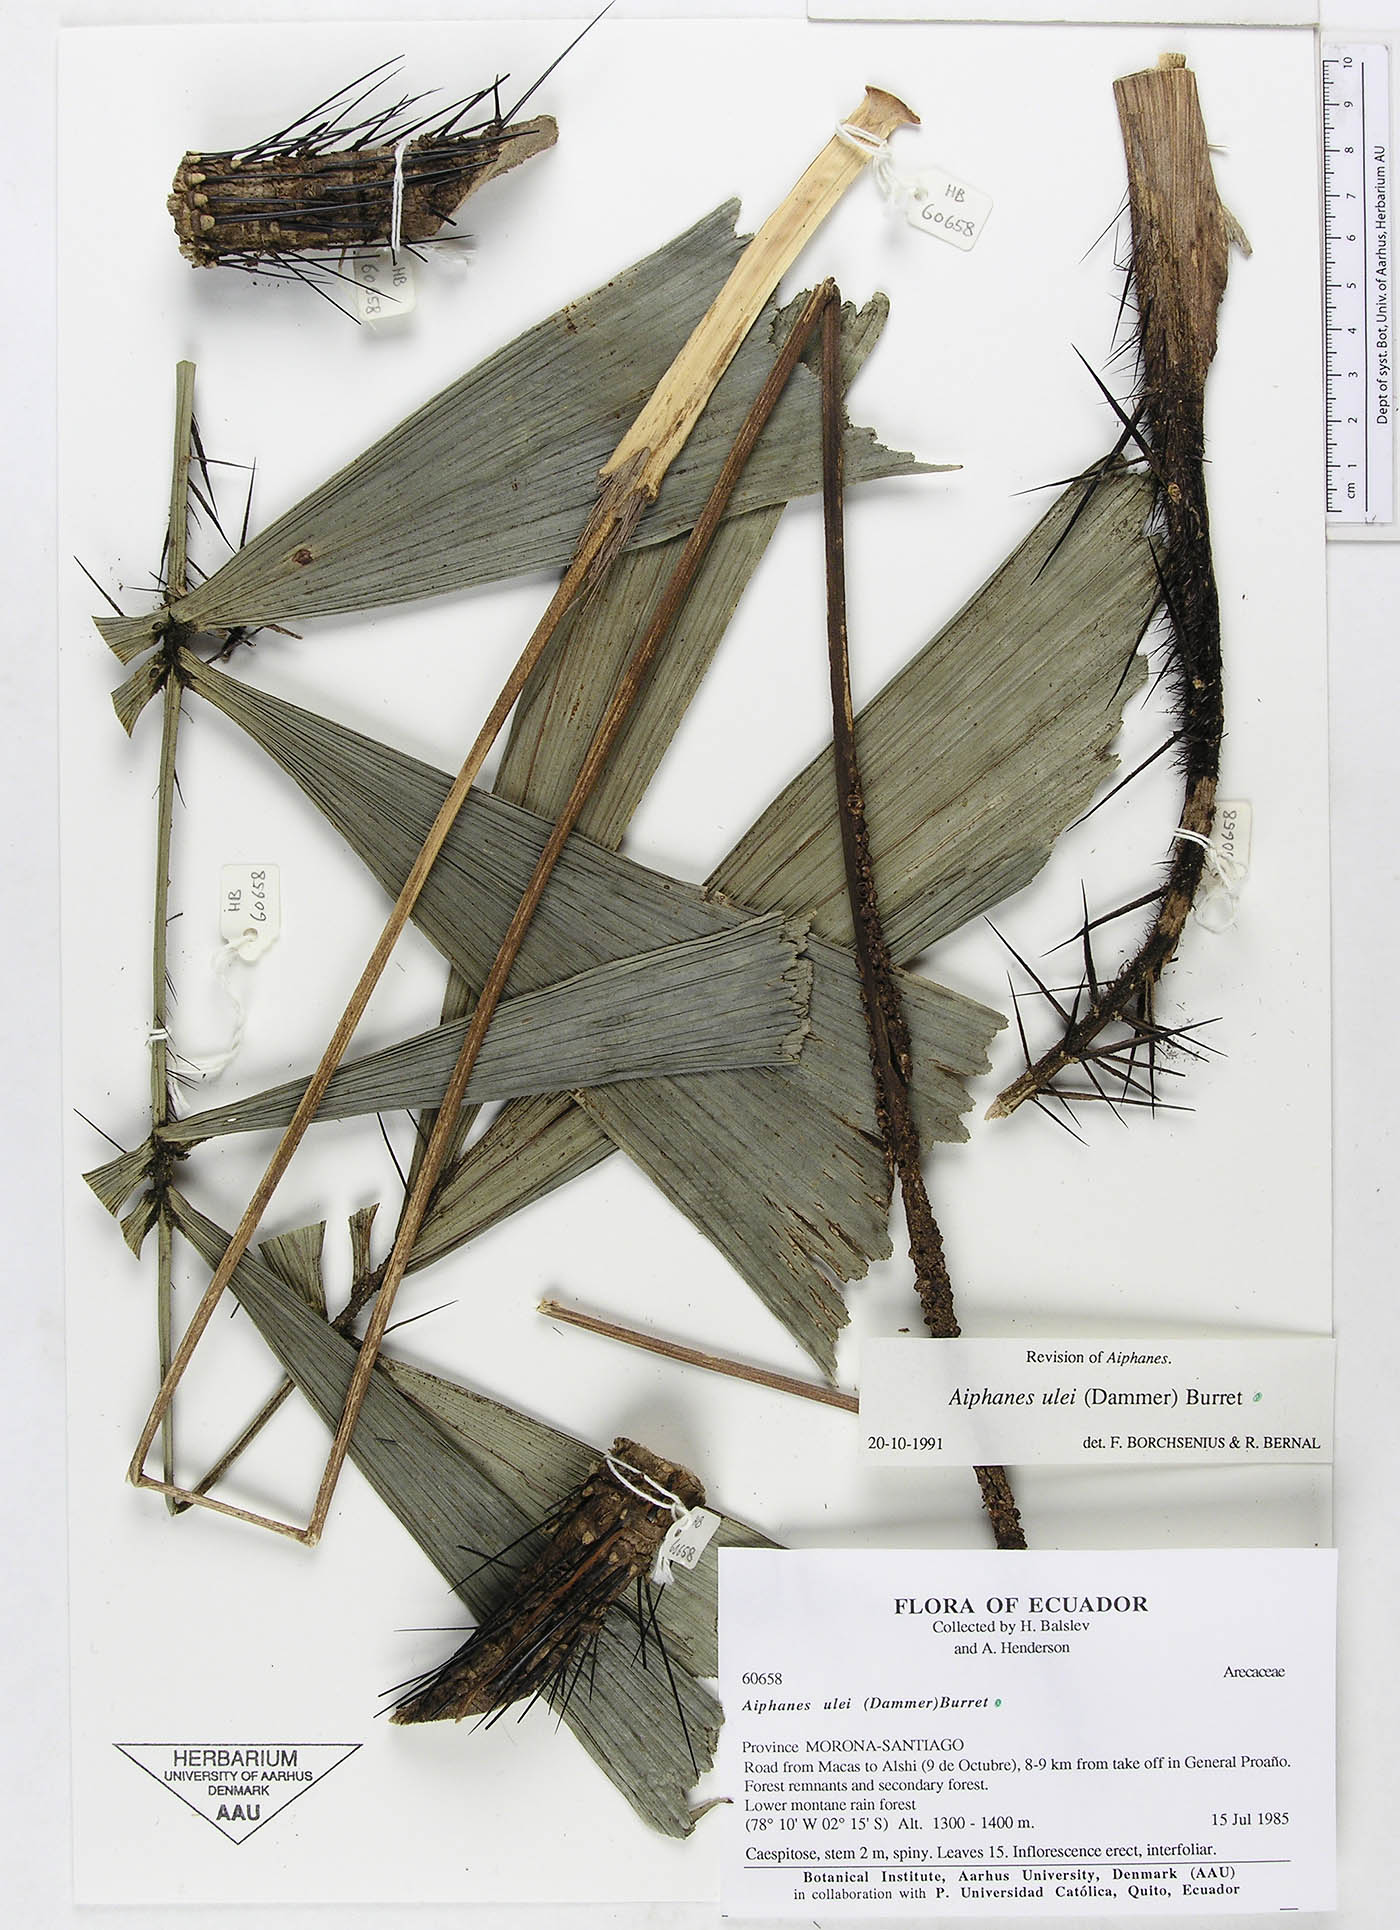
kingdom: Plantae
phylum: Tracheophyta
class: Liliopsida
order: Arecales
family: Arecaceae
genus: Aiphanes
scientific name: Aiphanes ulei
